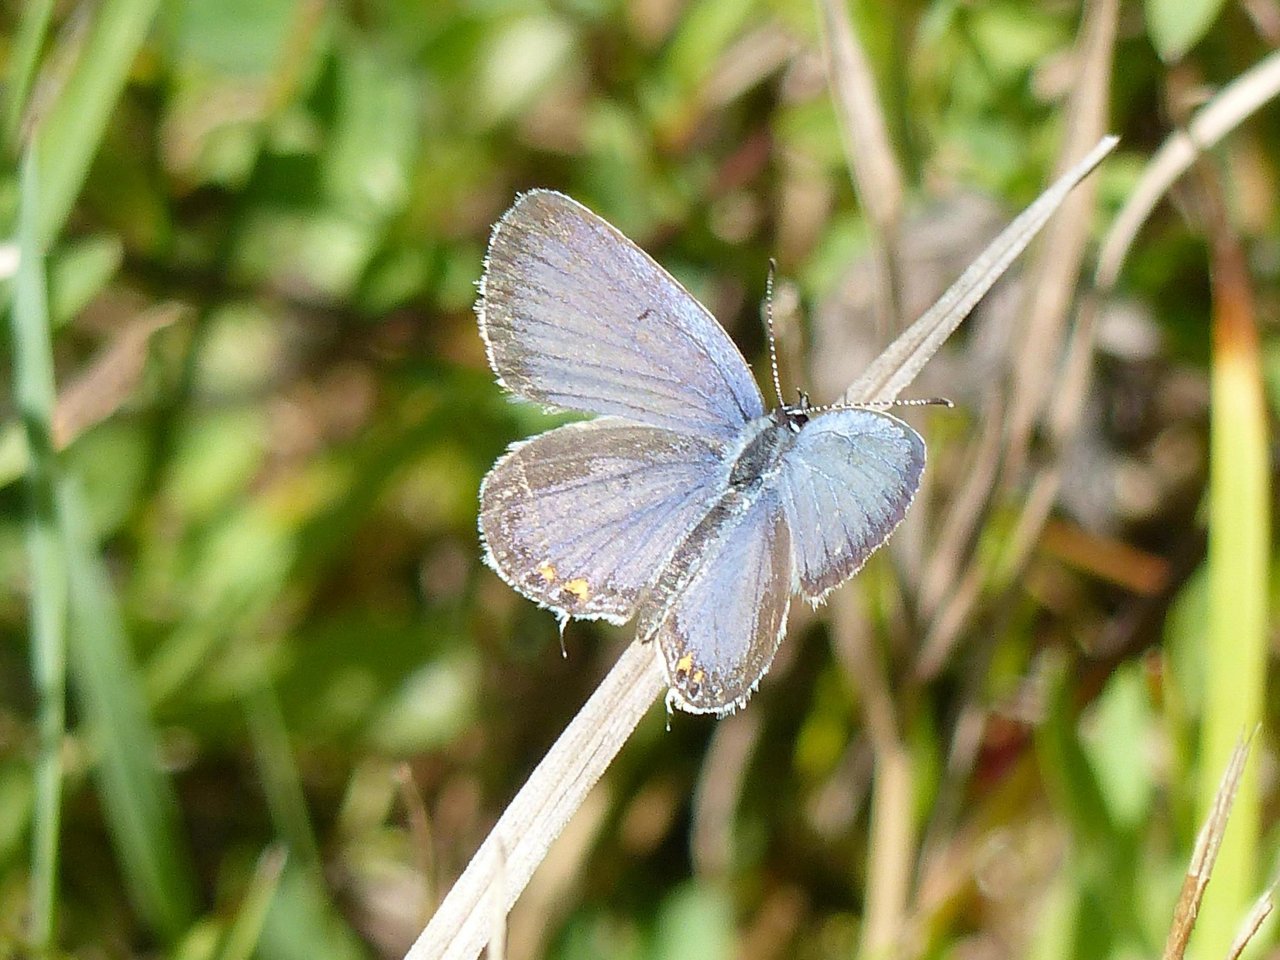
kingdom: Animalia
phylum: Arthropoda
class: Insecta
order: Lepidoptera
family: Lycaenidae
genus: Elkalyce
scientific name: Elkalyce comyntas
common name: Eastern Tailed-Blue
